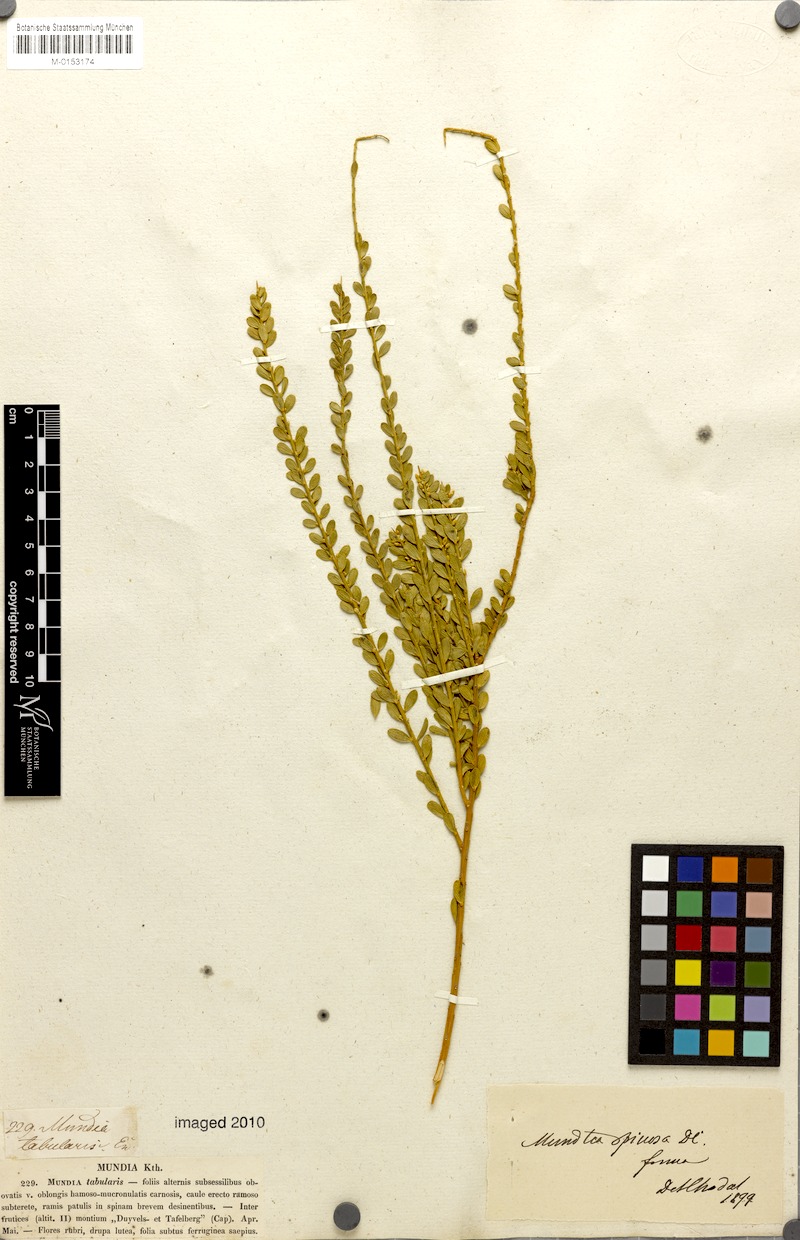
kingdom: Plantae
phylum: Tracheophyta
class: Magnoliopsida
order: Fabales
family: Polygalaceae
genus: Mundtia
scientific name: Mundtia spinosa
